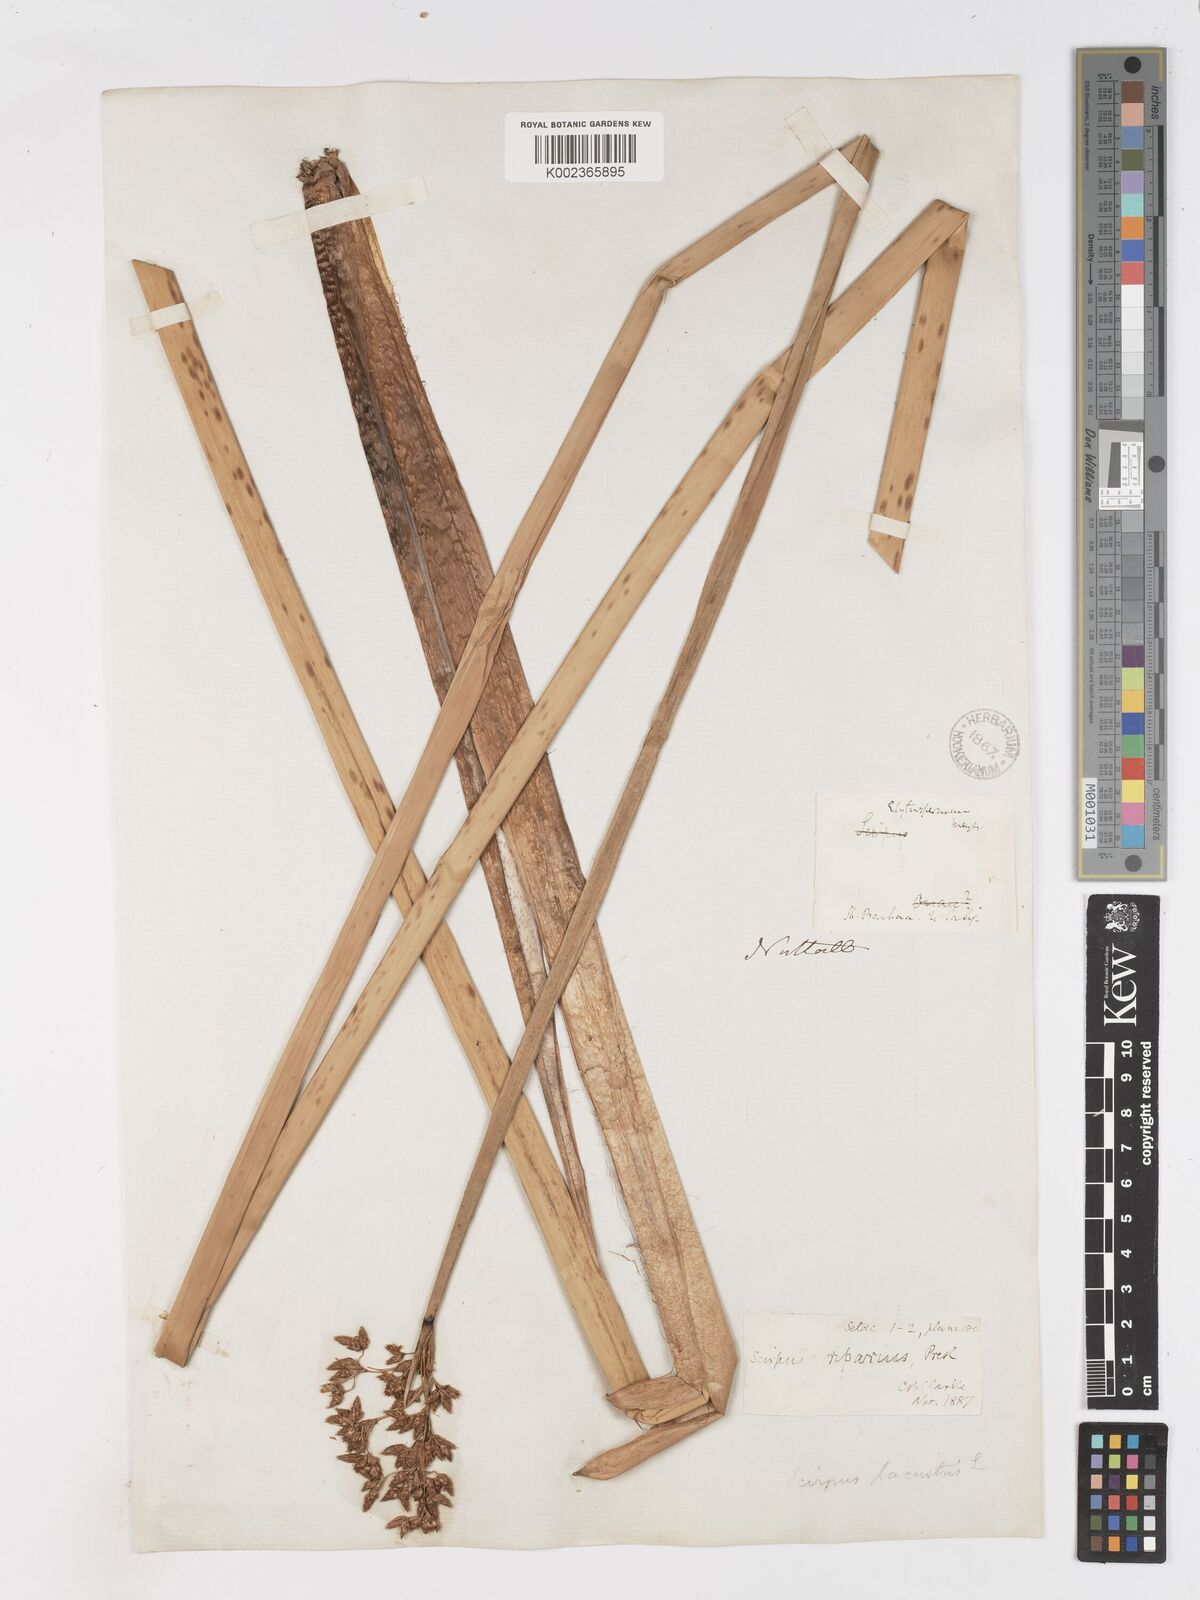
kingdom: Plantae
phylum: Tracheophyta
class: Liliopsida
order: Poales
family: Cyperaceae
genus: Schoenoplectus
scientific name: Schoenoplectus californicus
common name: California bulrush
